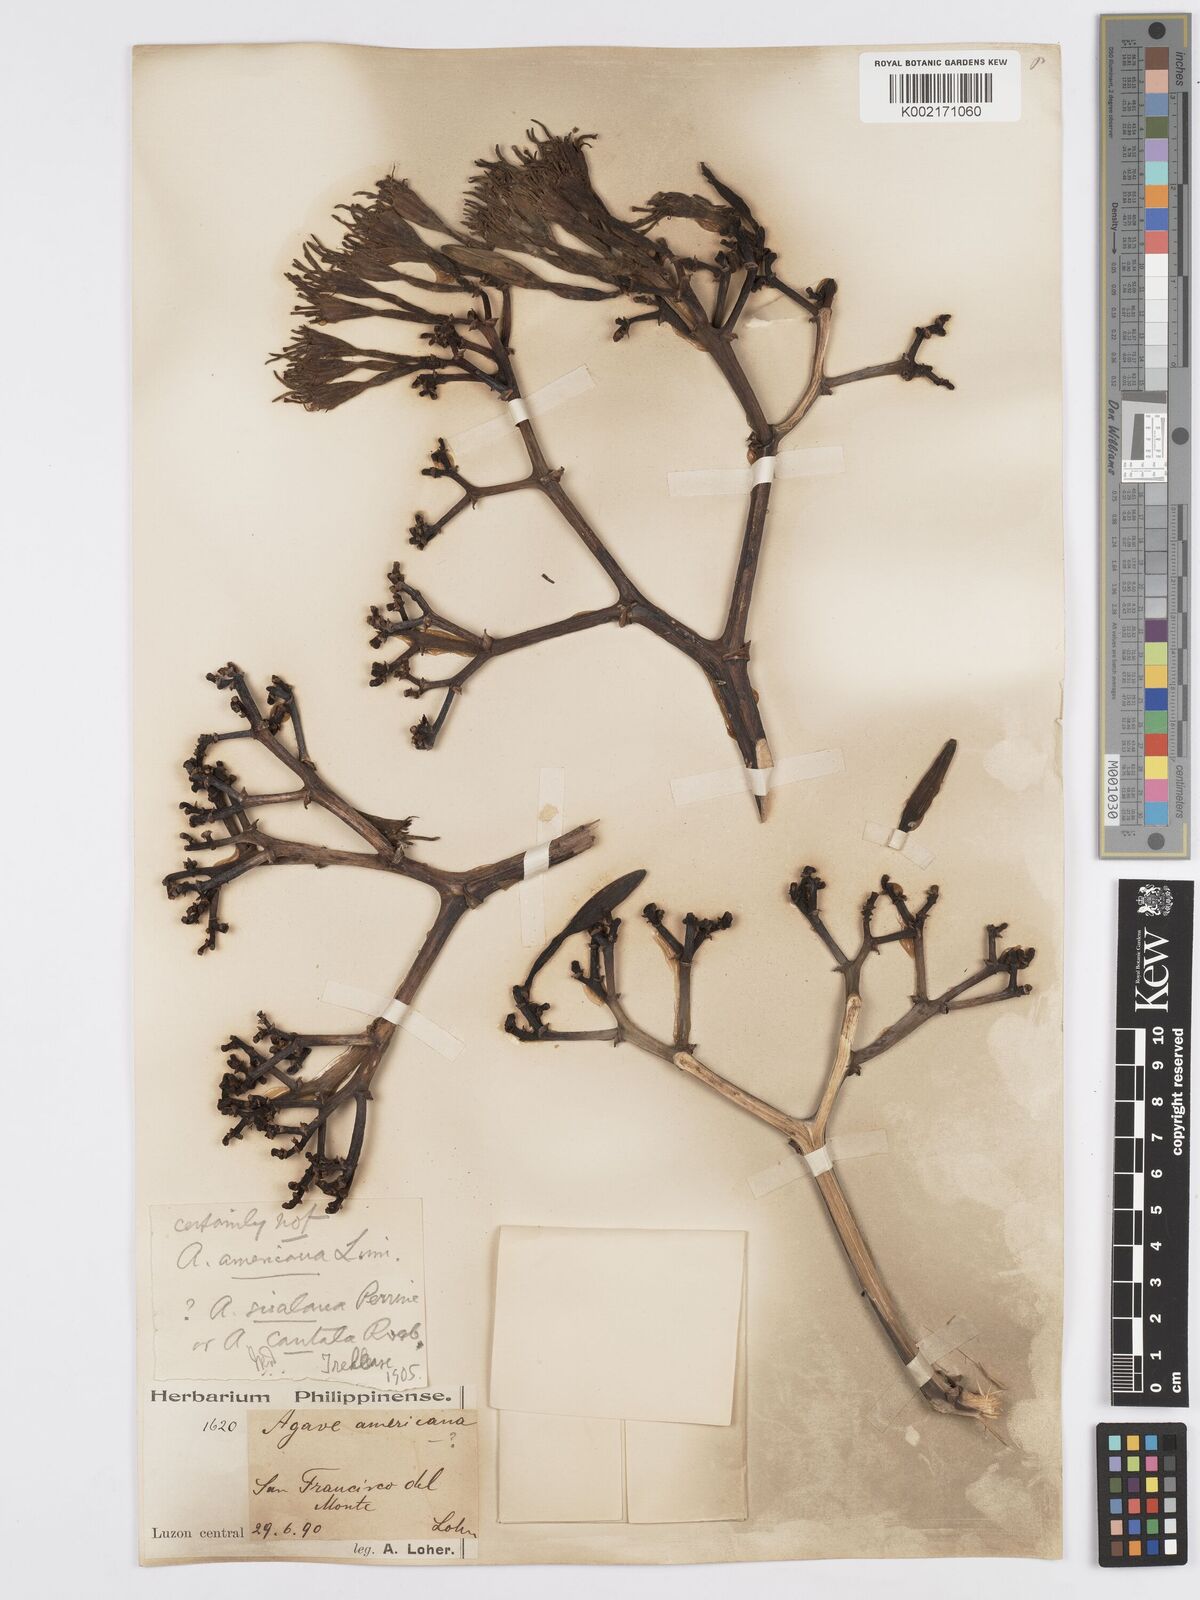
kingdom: Plantae
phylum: Tracheophyta
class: Liliopsida
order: Asparagales
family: Asparagaceae
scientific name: Asparagaceae
